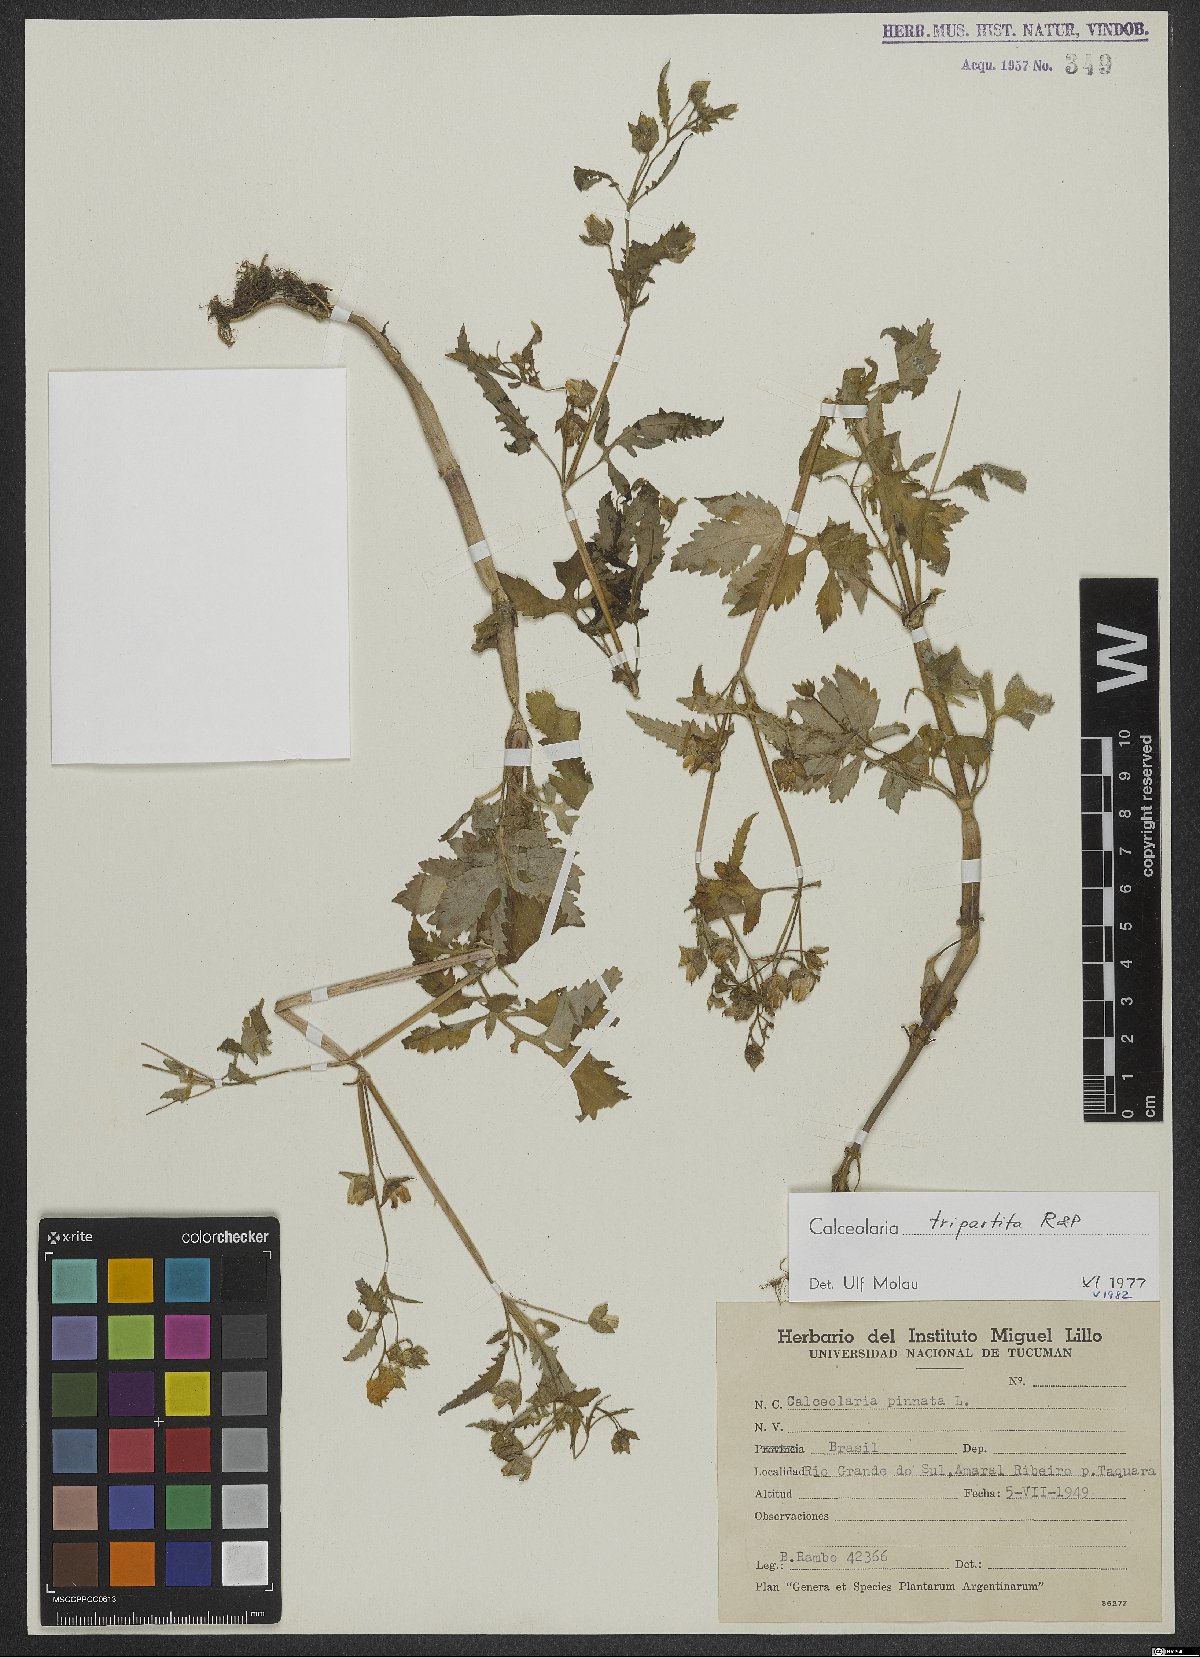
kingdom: Plantae
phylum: Tracheophyta
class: Magnoliopsida
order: Lamiales
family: Calceolariaceae
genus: Calceolaria
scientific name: Calceolaria tripartita
